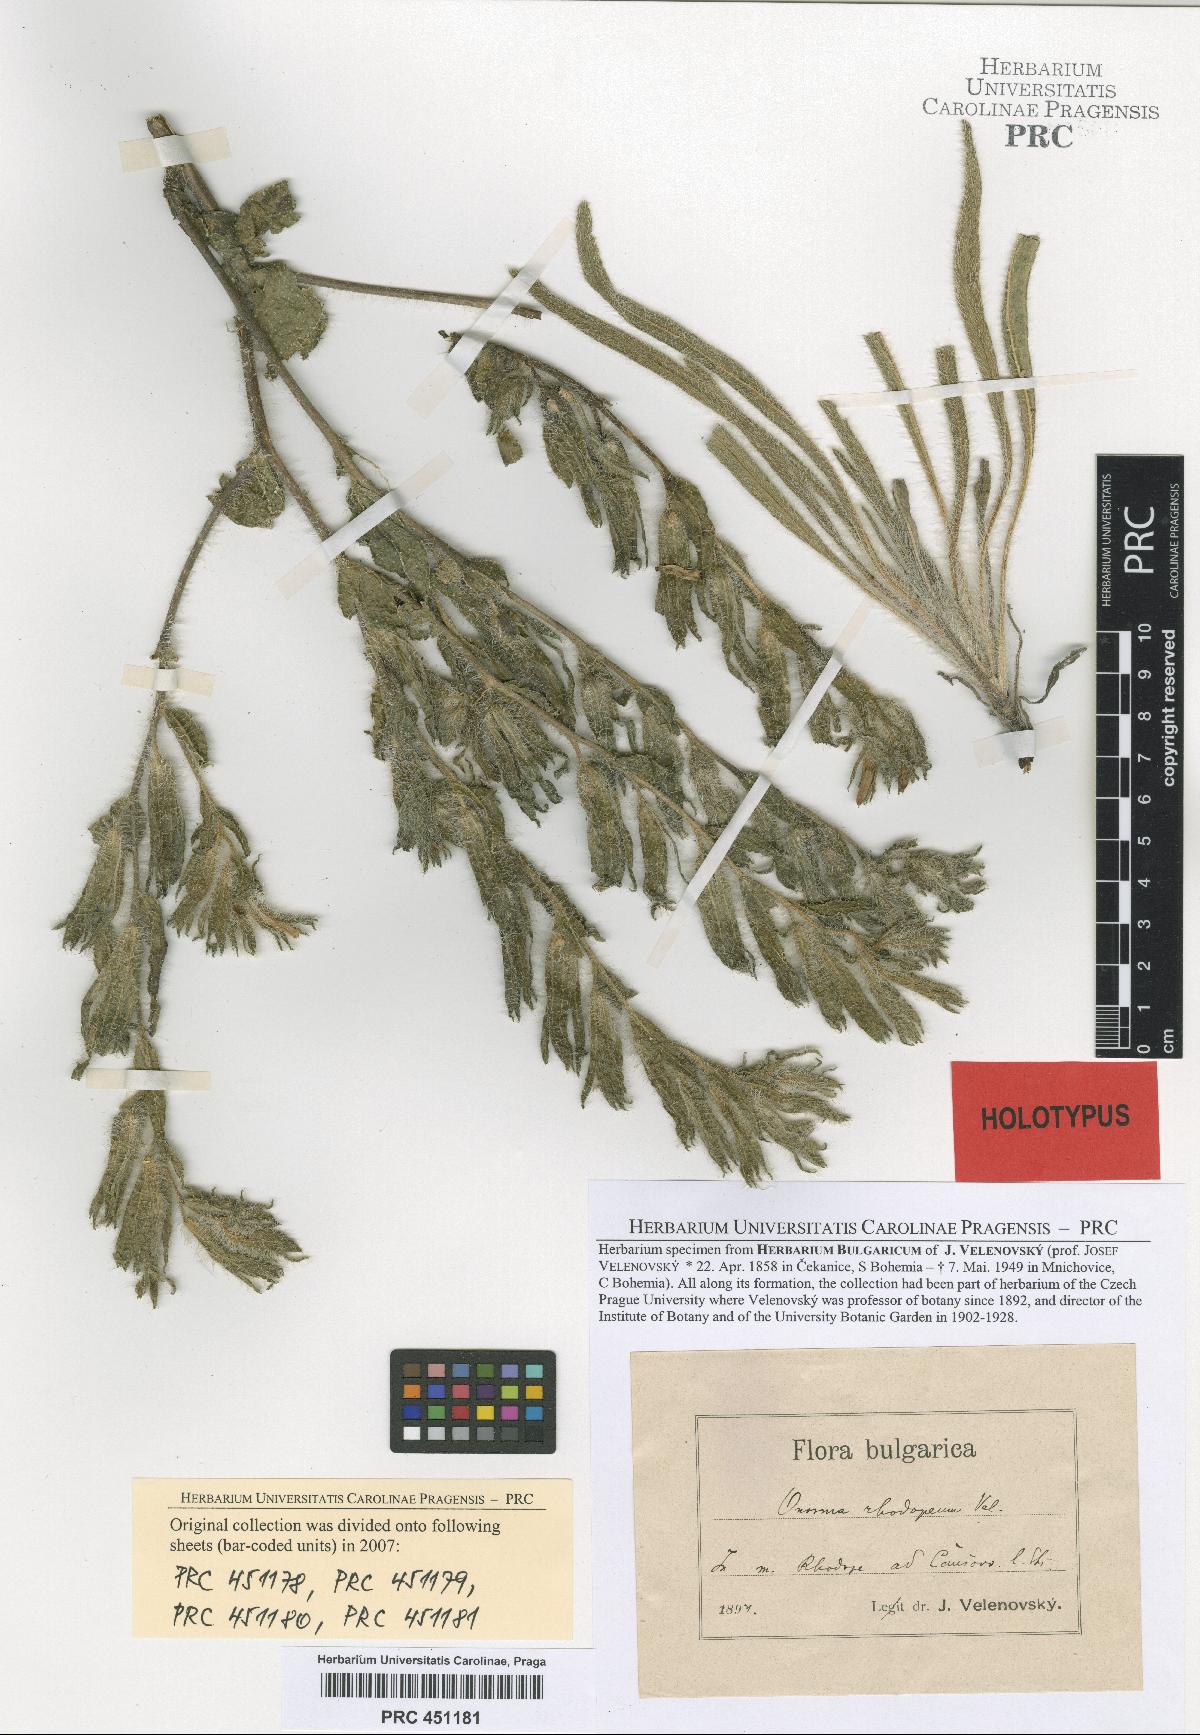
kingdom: Plantae
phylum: Tracheophyta
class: Magnoliopsida
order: Boraginales
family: Boraginaceae
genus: Onosma
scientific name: Onosma visianii
